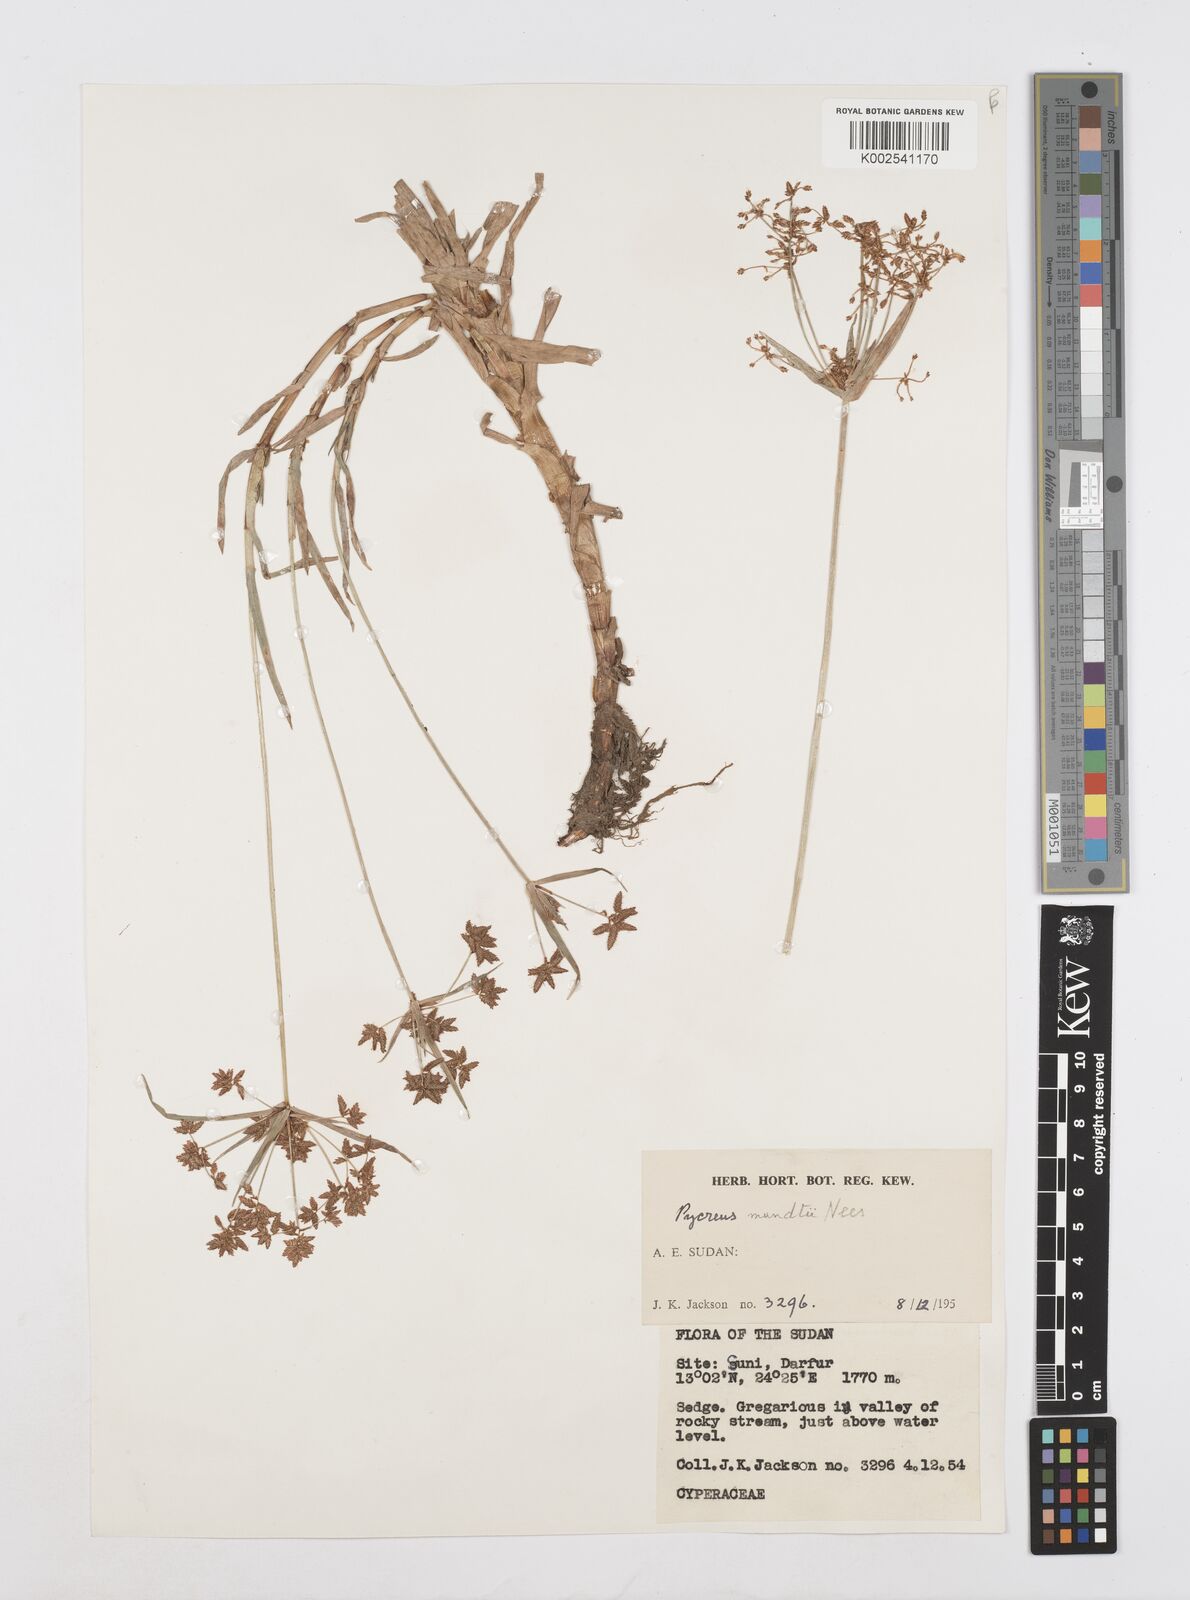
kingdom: Plantae
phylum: Tracheophyta
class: Liliopsida
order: Poales
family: Cyperaceae
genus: Cyperus
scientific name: Cyperus mundii
